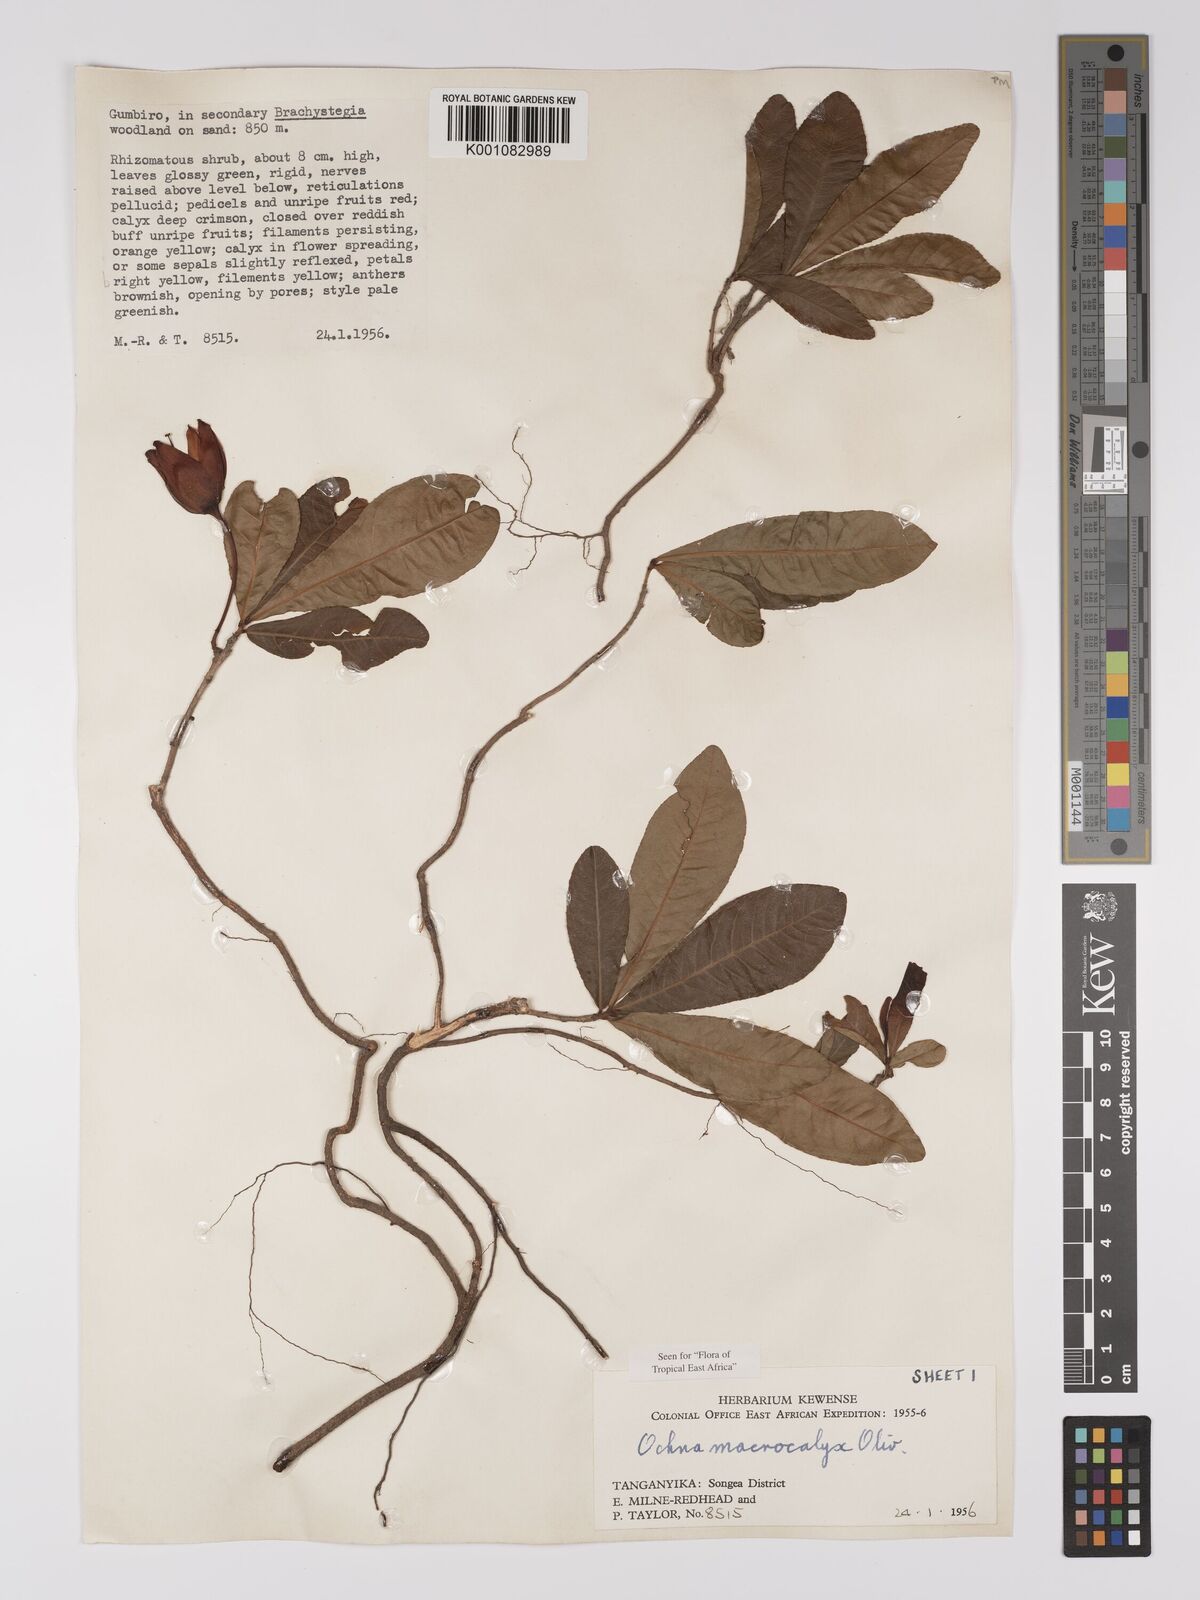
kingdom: Plantae
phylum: Tracheophyta
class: Magnoliopsida
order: Malpighiales
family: Ochnaceae
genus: Ochna
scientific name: Ochna macrocalyx
